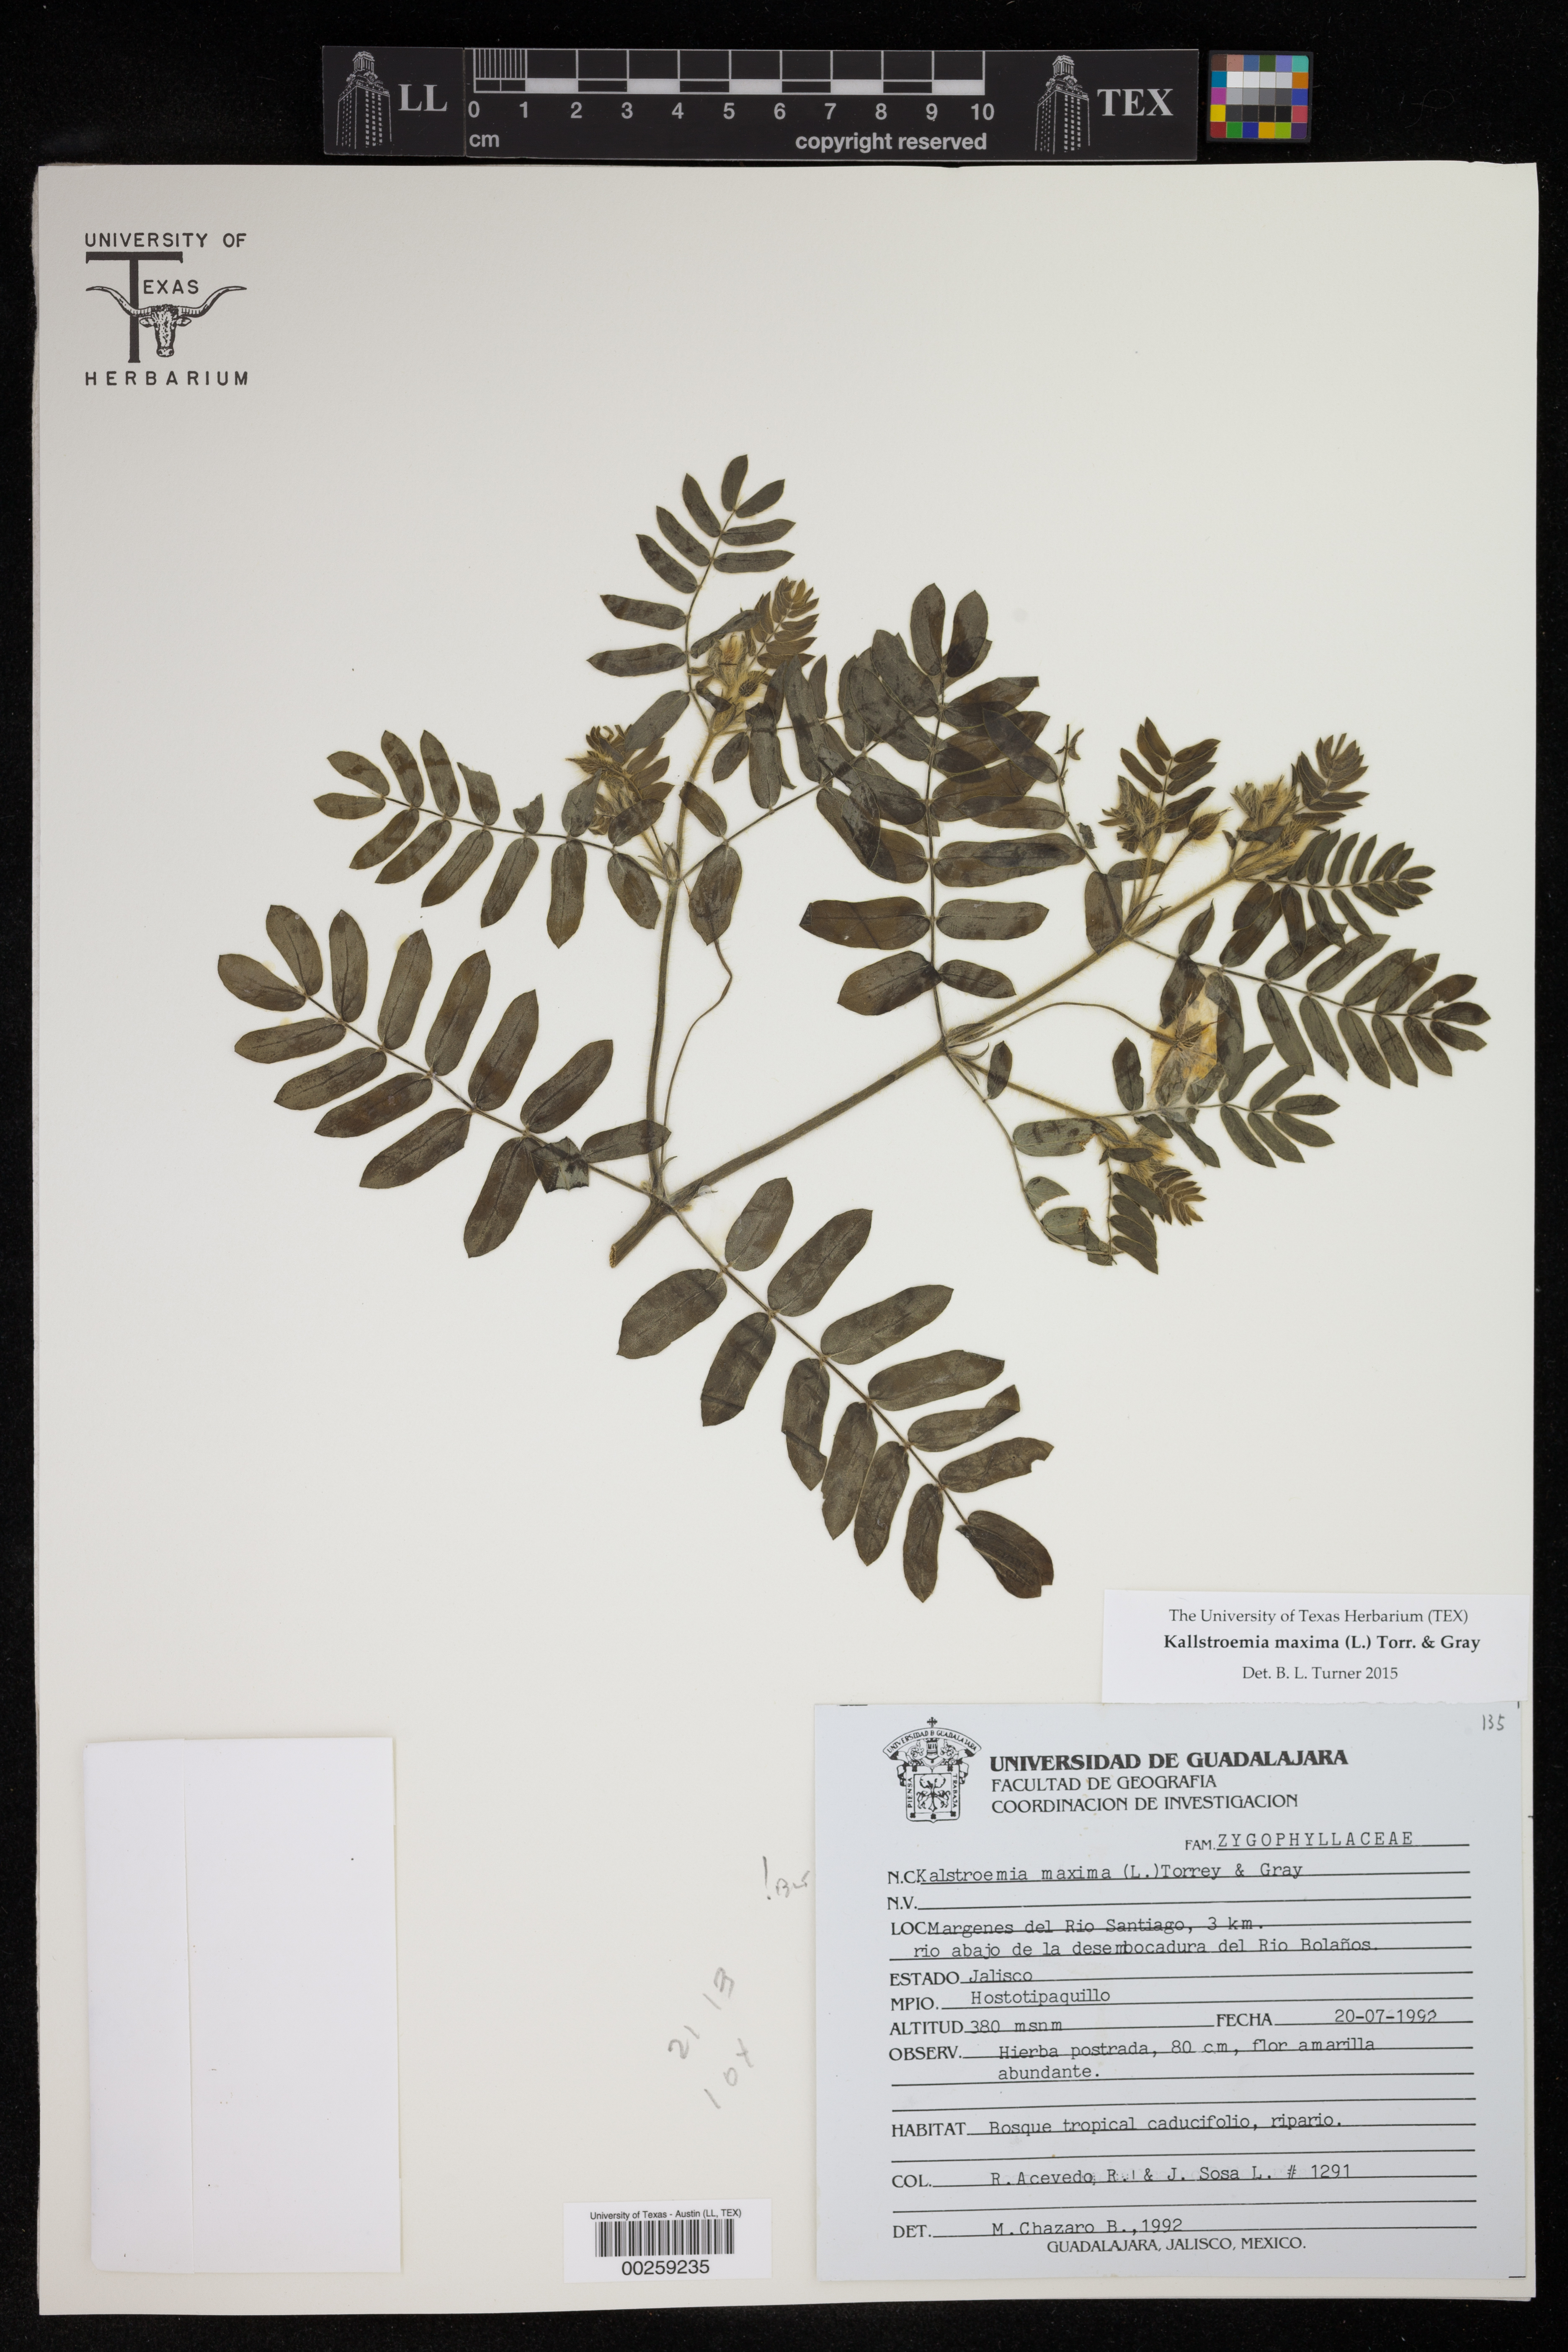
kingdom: Plantae
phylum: Tracheophyta
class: Magnoliopsida
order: Zygophyllales
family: Zygophyllaceae
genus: Kallstroemia
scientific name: Kallstroemia maxima
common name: Big caltropa
